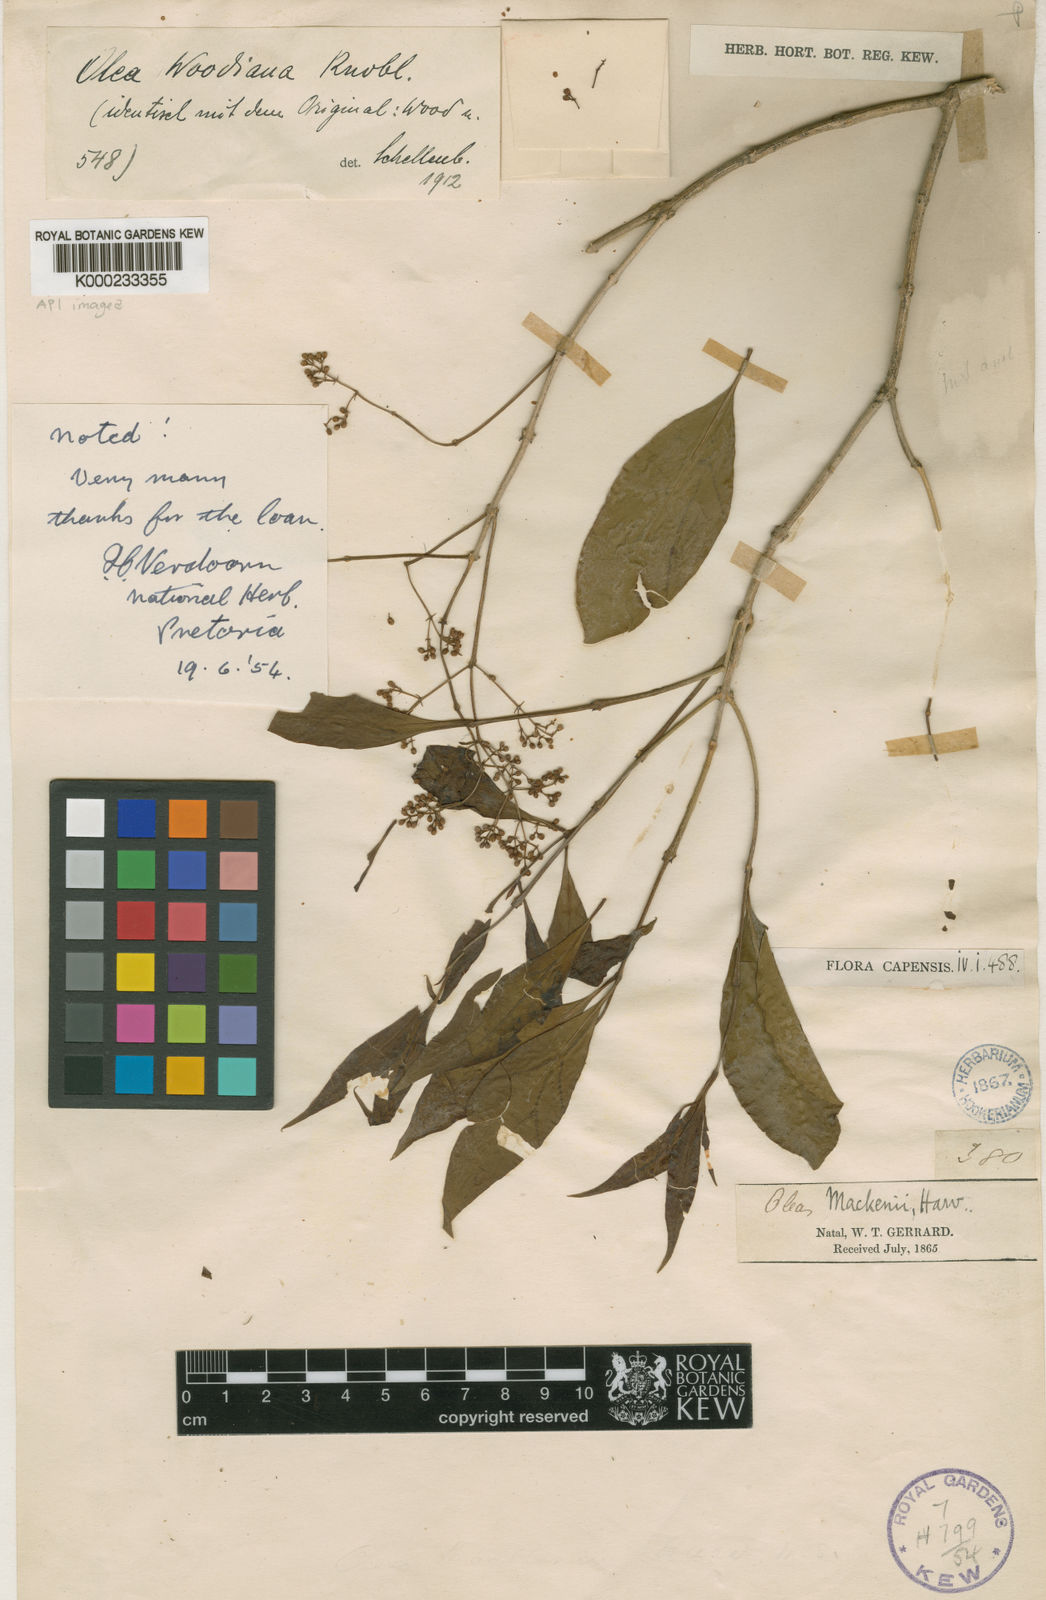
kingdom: Plantae
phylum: Tracheophyta
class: Magnoliopsida
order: Lamiales
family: Oleaceae
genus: Olea
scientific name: Olea woodiana
